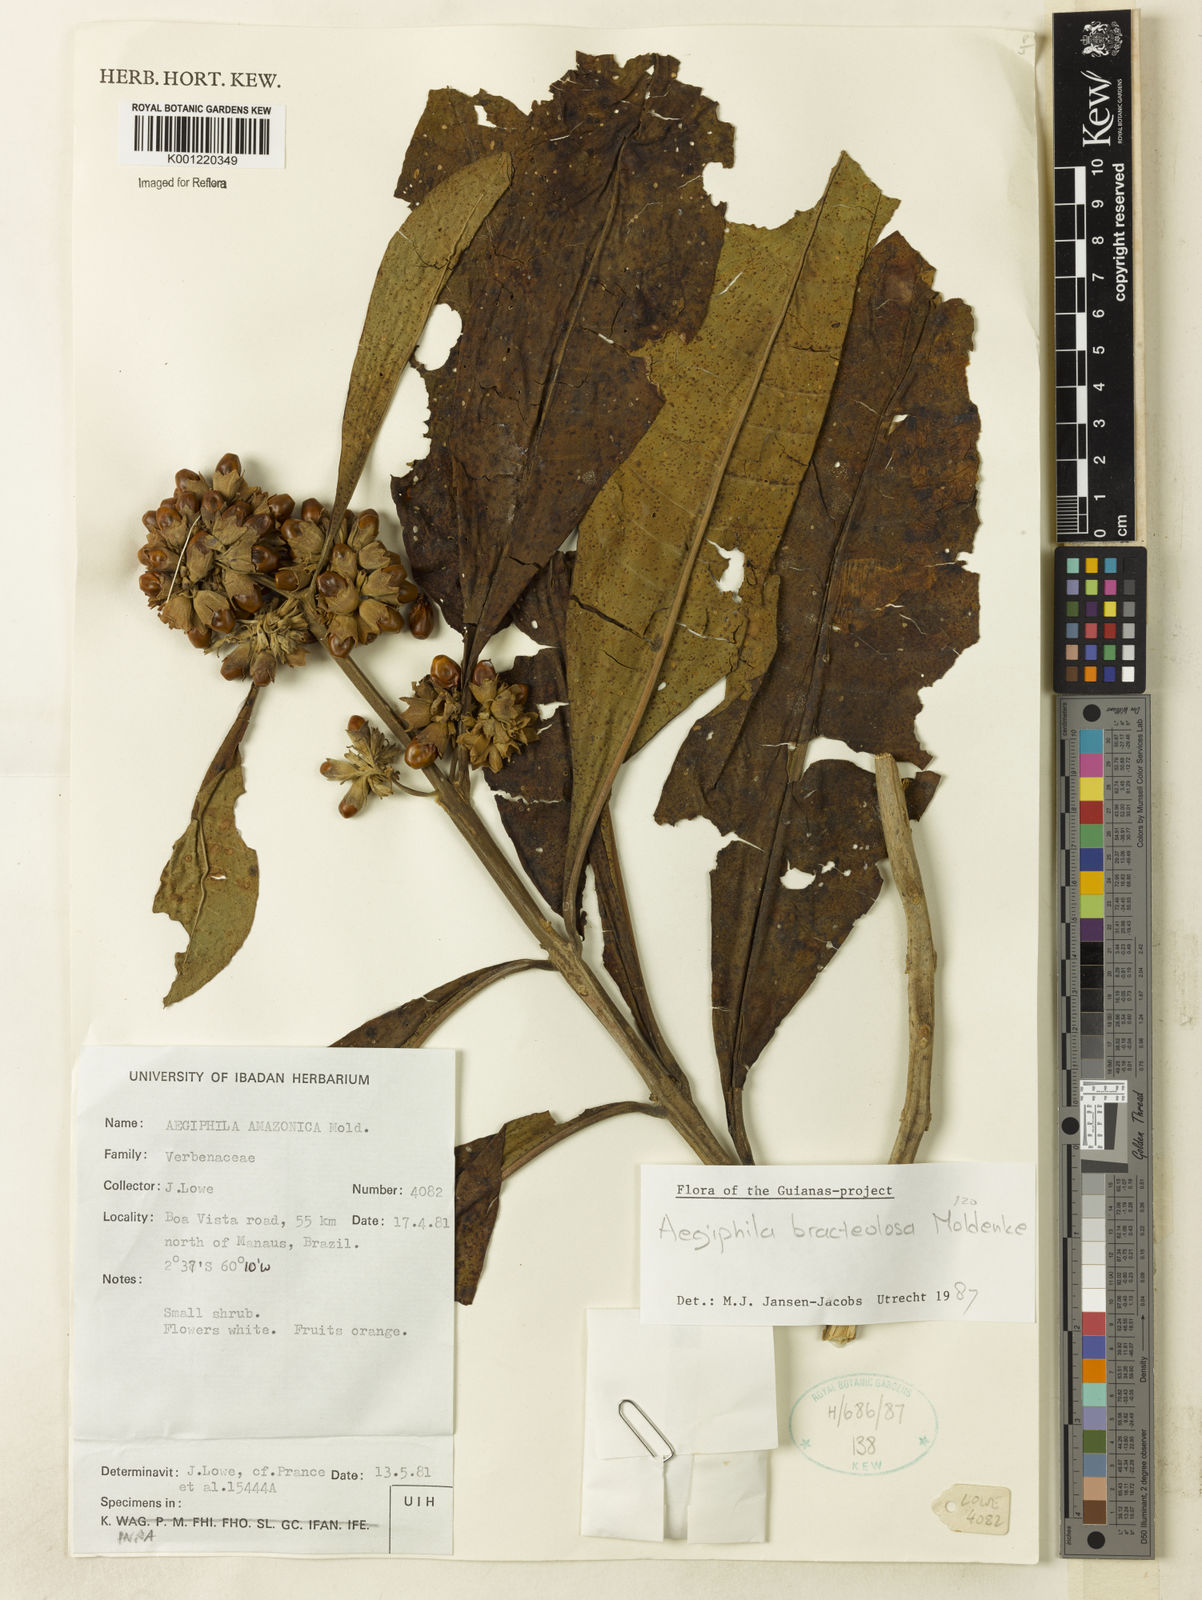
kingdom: Plantae
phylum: Tracheophyta
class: Magnoliopsida
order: Lamiales
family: Lamiaceae
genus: Aegiphila
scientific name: Aegiphila bracteolosa
